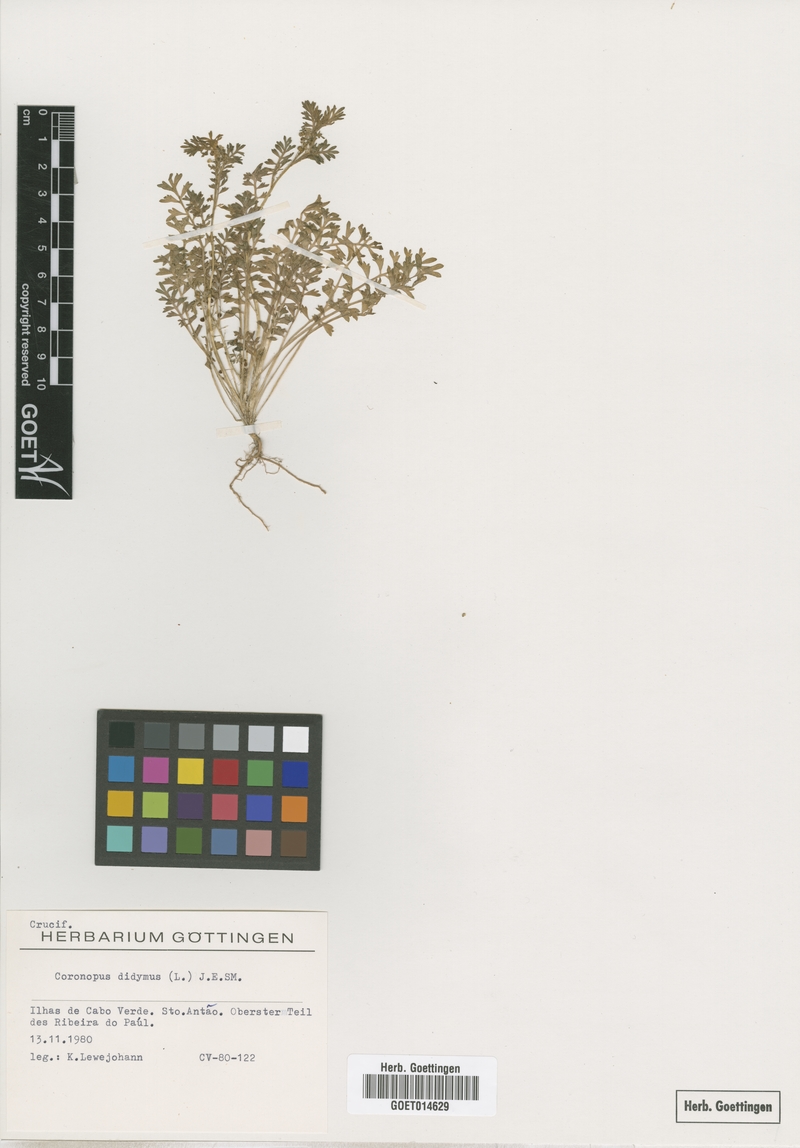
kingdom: Plantae
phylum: Tracheophyta
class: Magnoliopsida
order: Brassicales
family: Brassicaceae
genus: Lepidium
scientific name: Lepidium didymum
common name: Lesser swinecress
